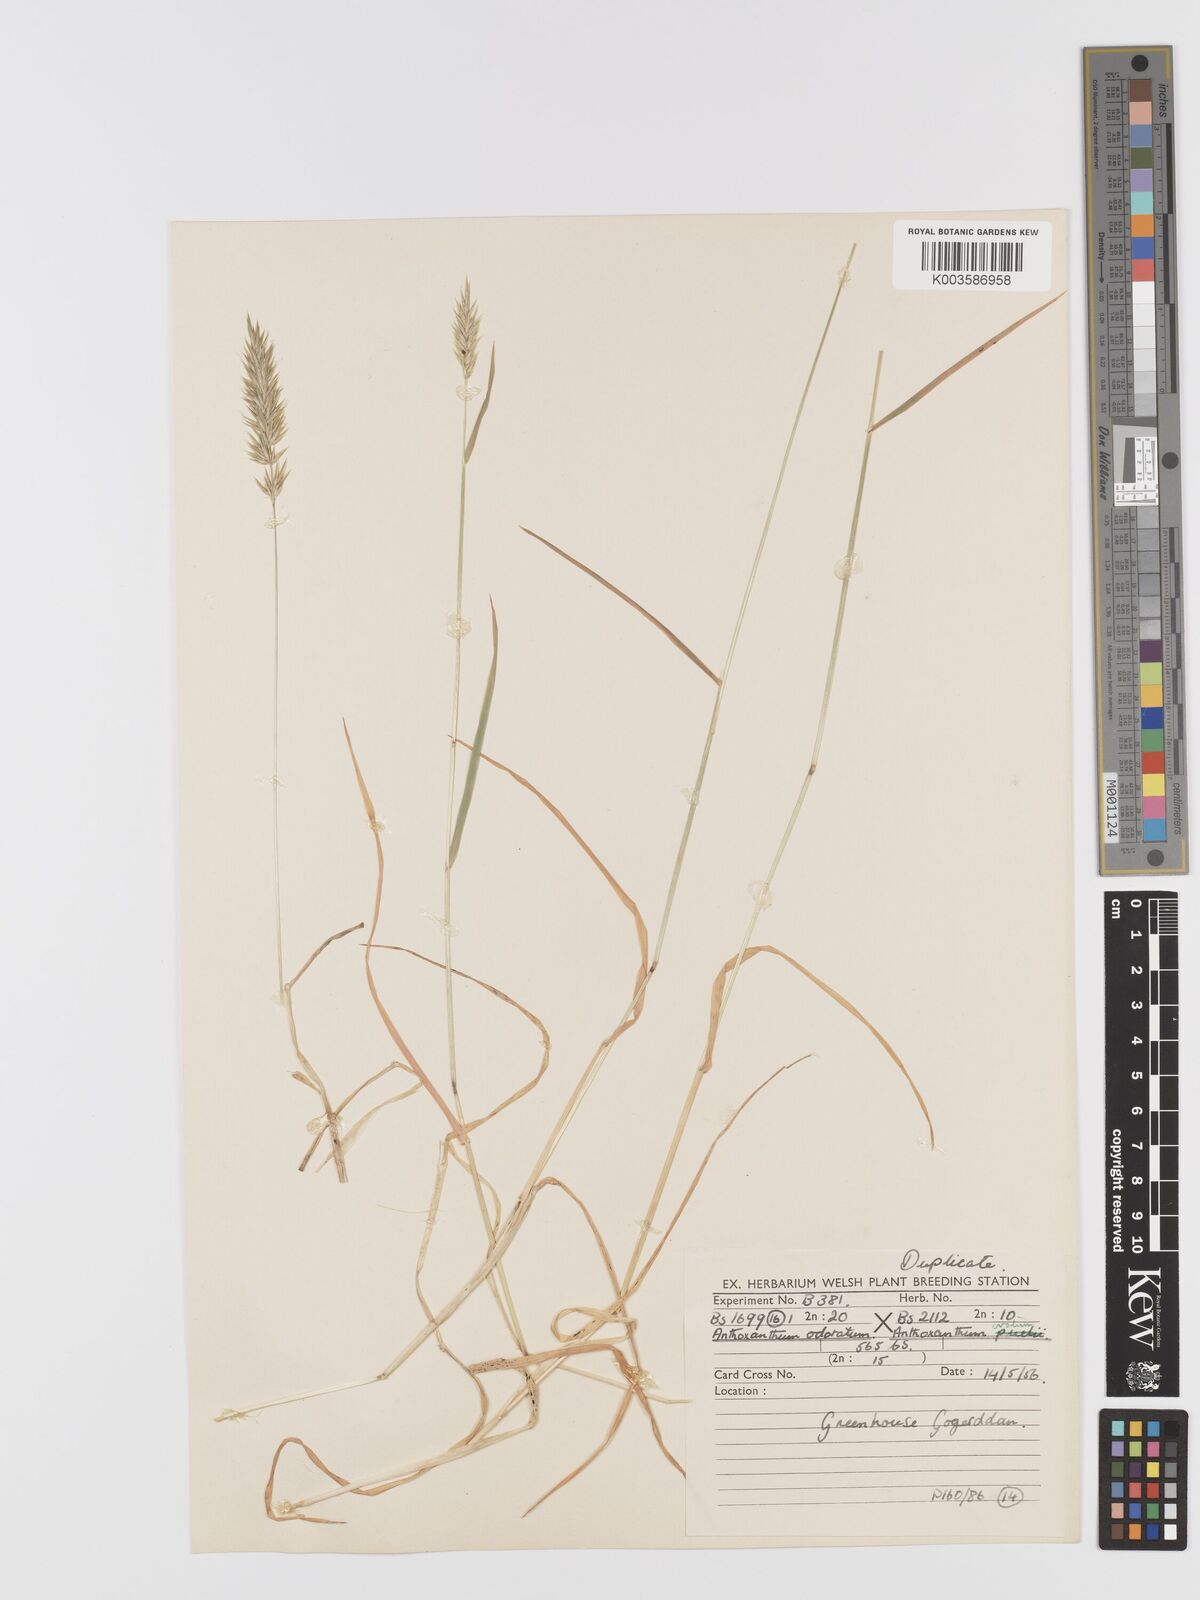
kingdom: Plantae
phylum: Tracheophyta
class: Liliopsida
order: Poales
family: Poaceae
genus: Anthoxanthum
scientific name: Anthoxanthum odoratum
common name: Sweet vernalgrass
